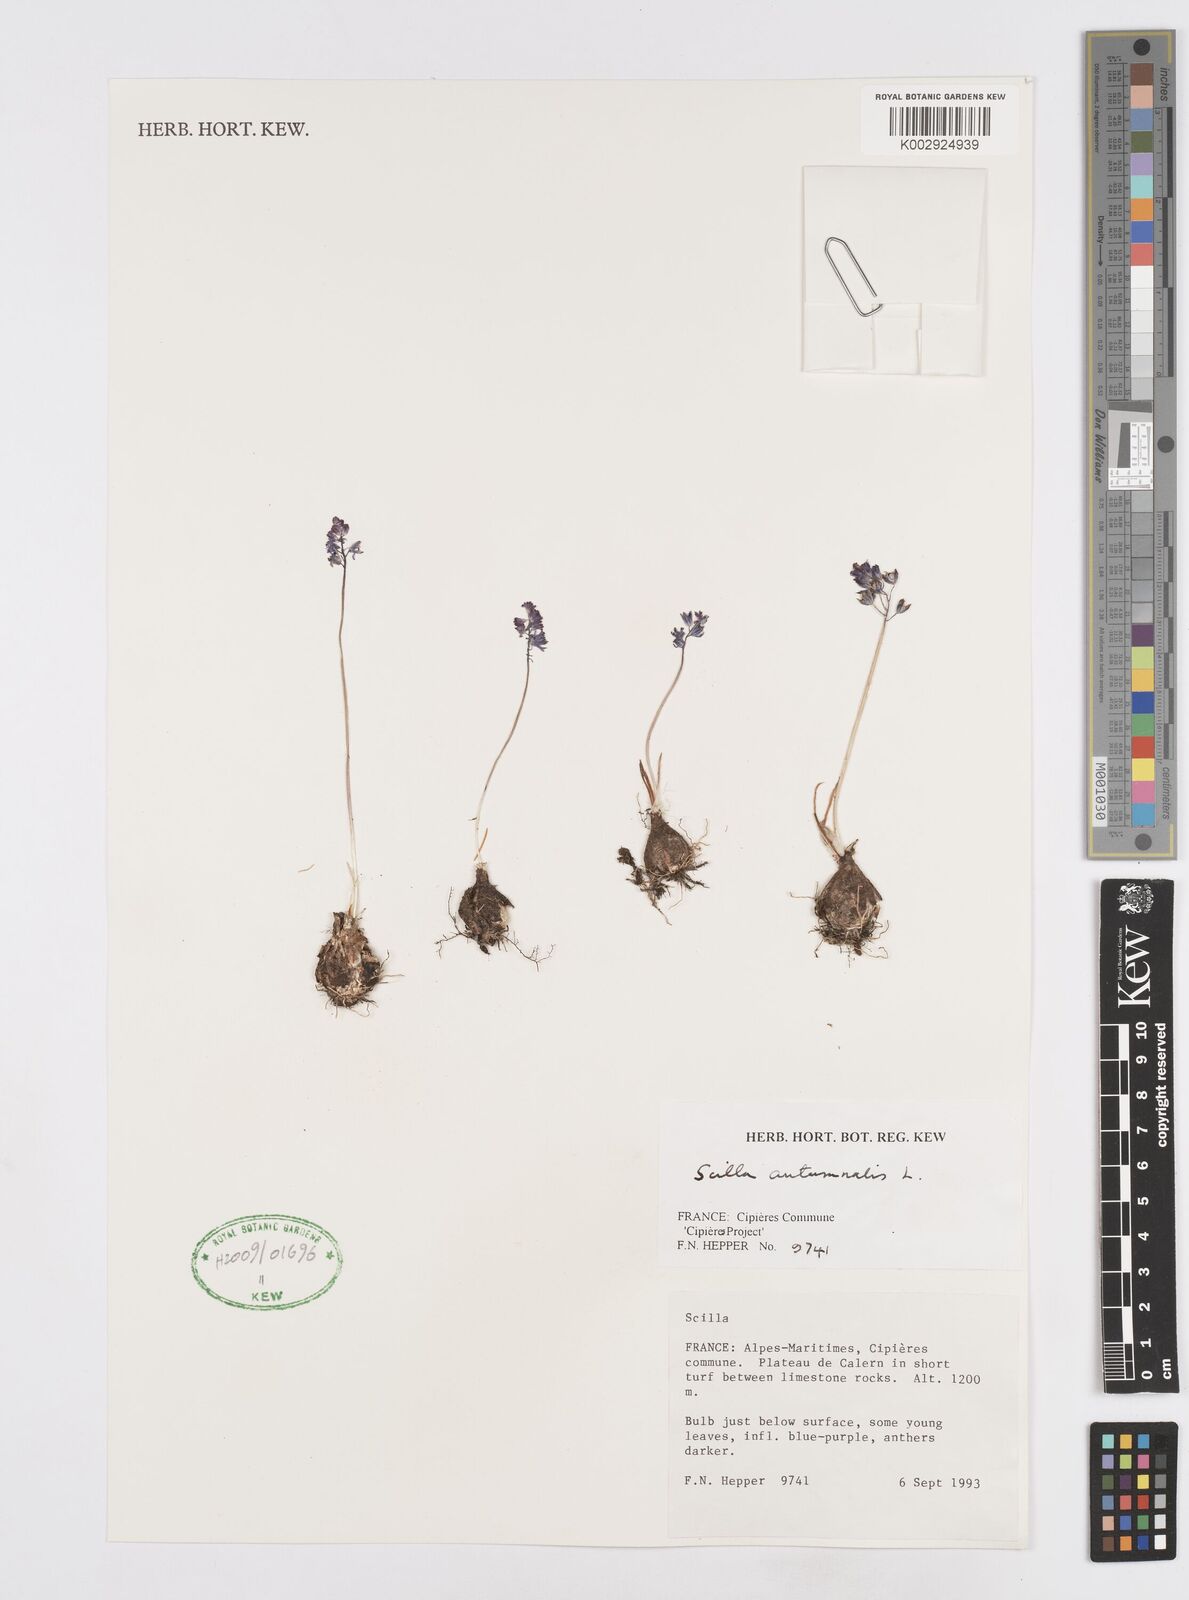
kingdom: Plantae
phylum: Tracheophyta
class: Liliopsida
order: Asparagales
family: Asparagaceae
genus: Prospero
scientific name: Prospero autumnale
